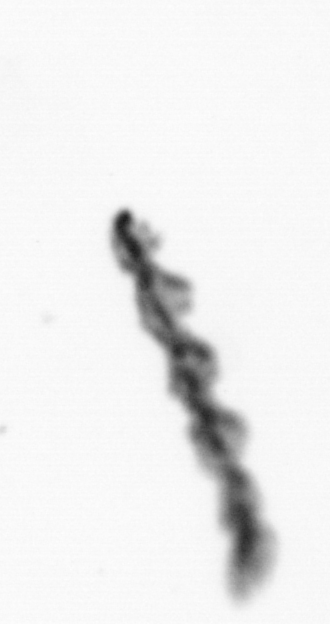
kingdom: Chromista
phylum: Ochrophyta
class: Bacillariophyceae
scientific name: Bacillariophyceae
